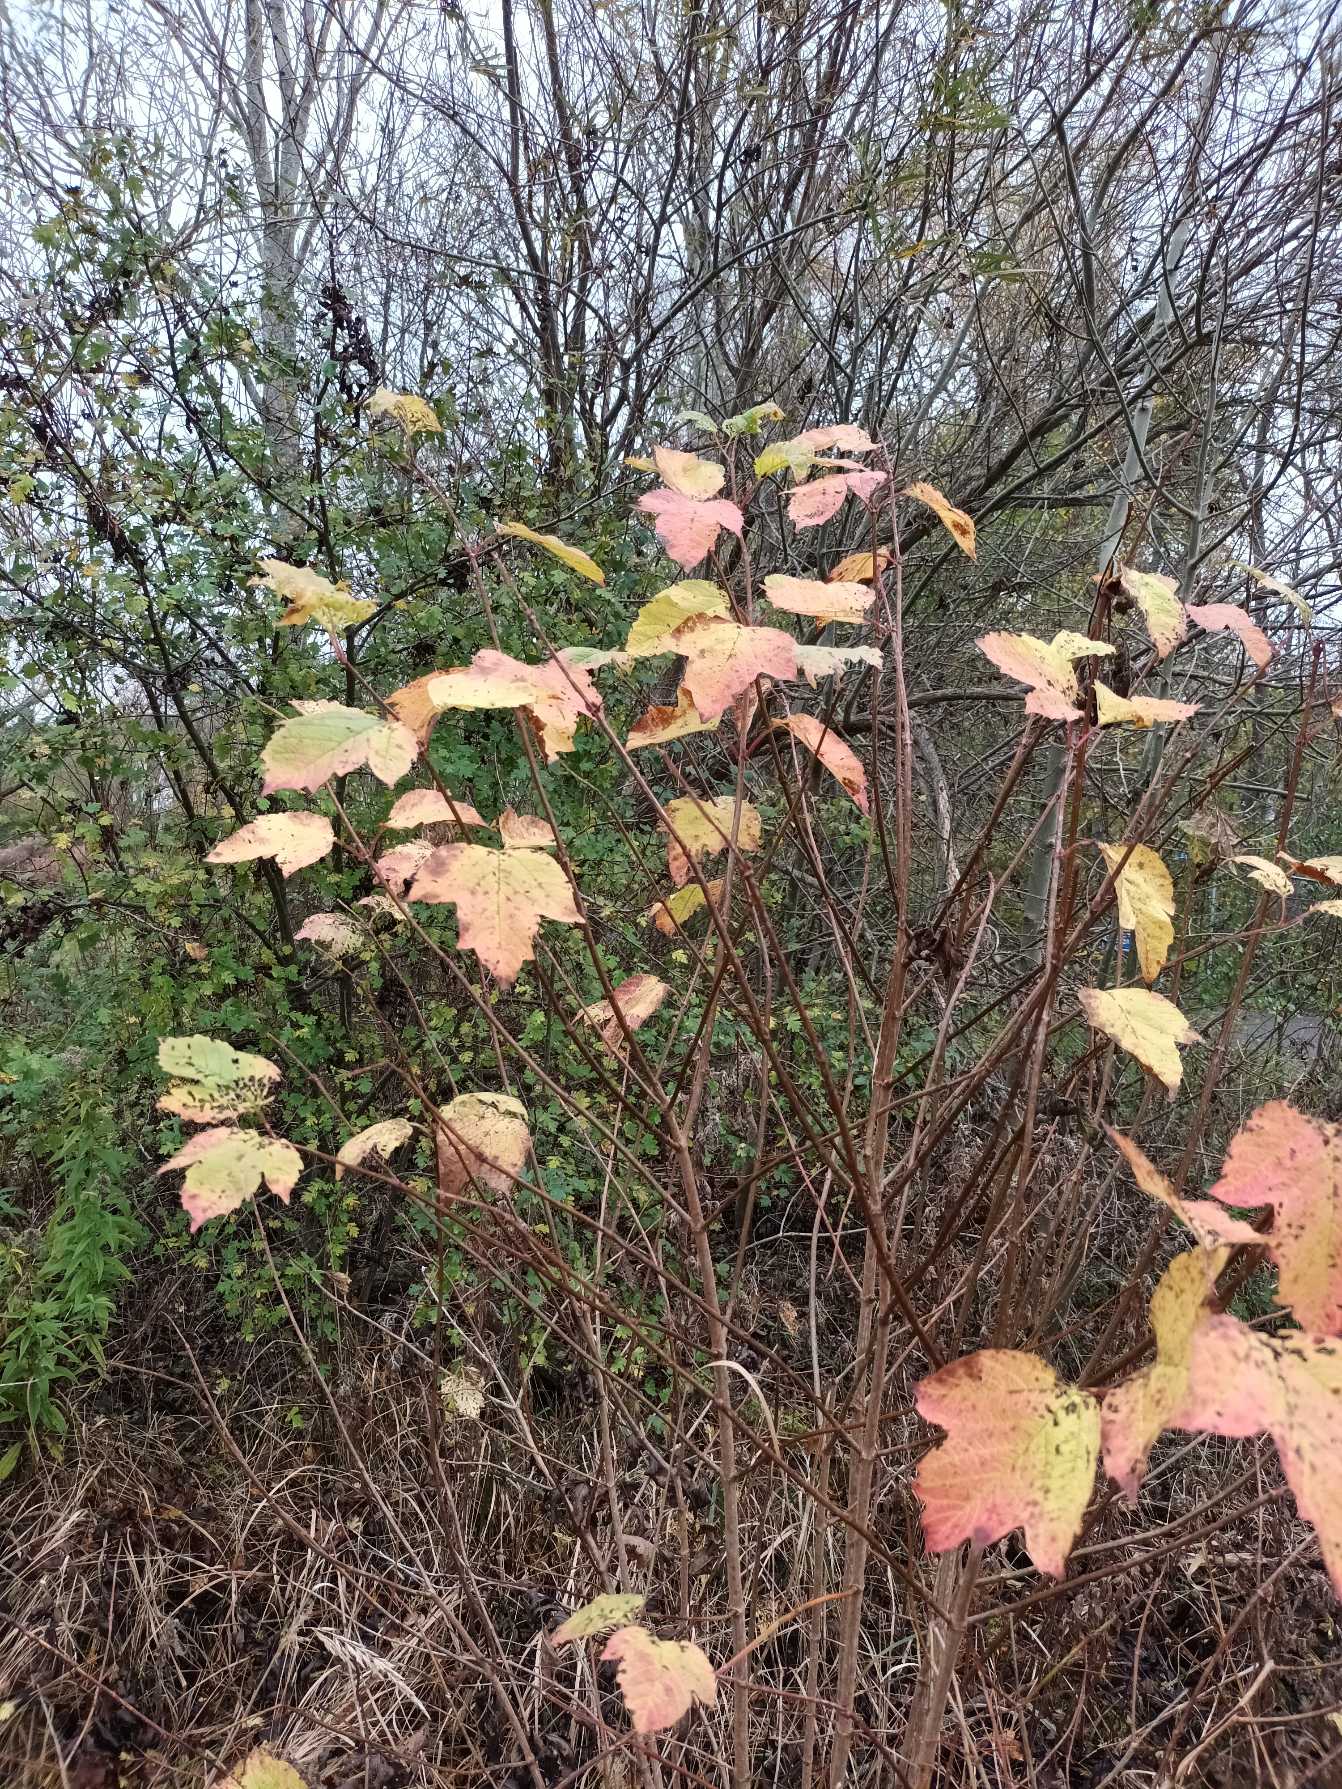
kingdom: Plantae
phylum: Tracheophyta
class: Magnoliopsida
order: Dipsacales
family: Viburnaceae
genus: Viburnum
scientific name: Viburnum opulus
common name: Kvalkved
